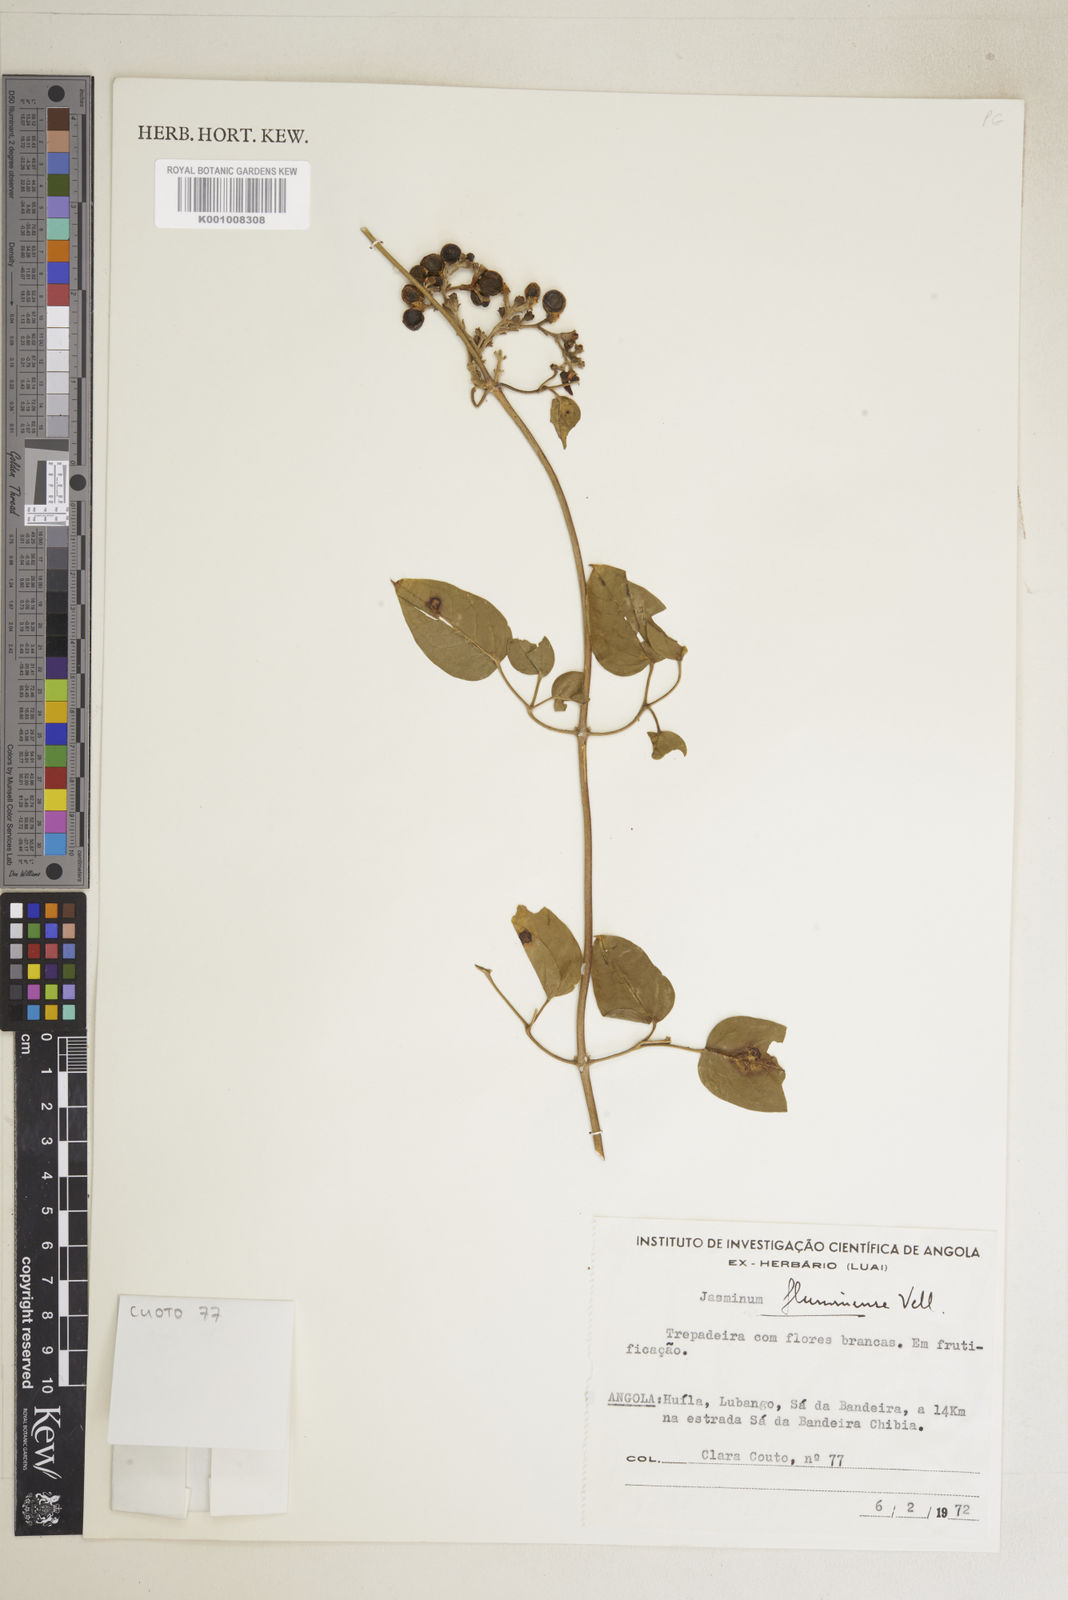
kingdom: Plantae
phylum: Tracheophyta
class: Magnoliopsida
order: Lamiales
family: Oleaceae
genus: Jasminum
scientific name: Jasminum fluminense
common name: Brazilian jasmine
